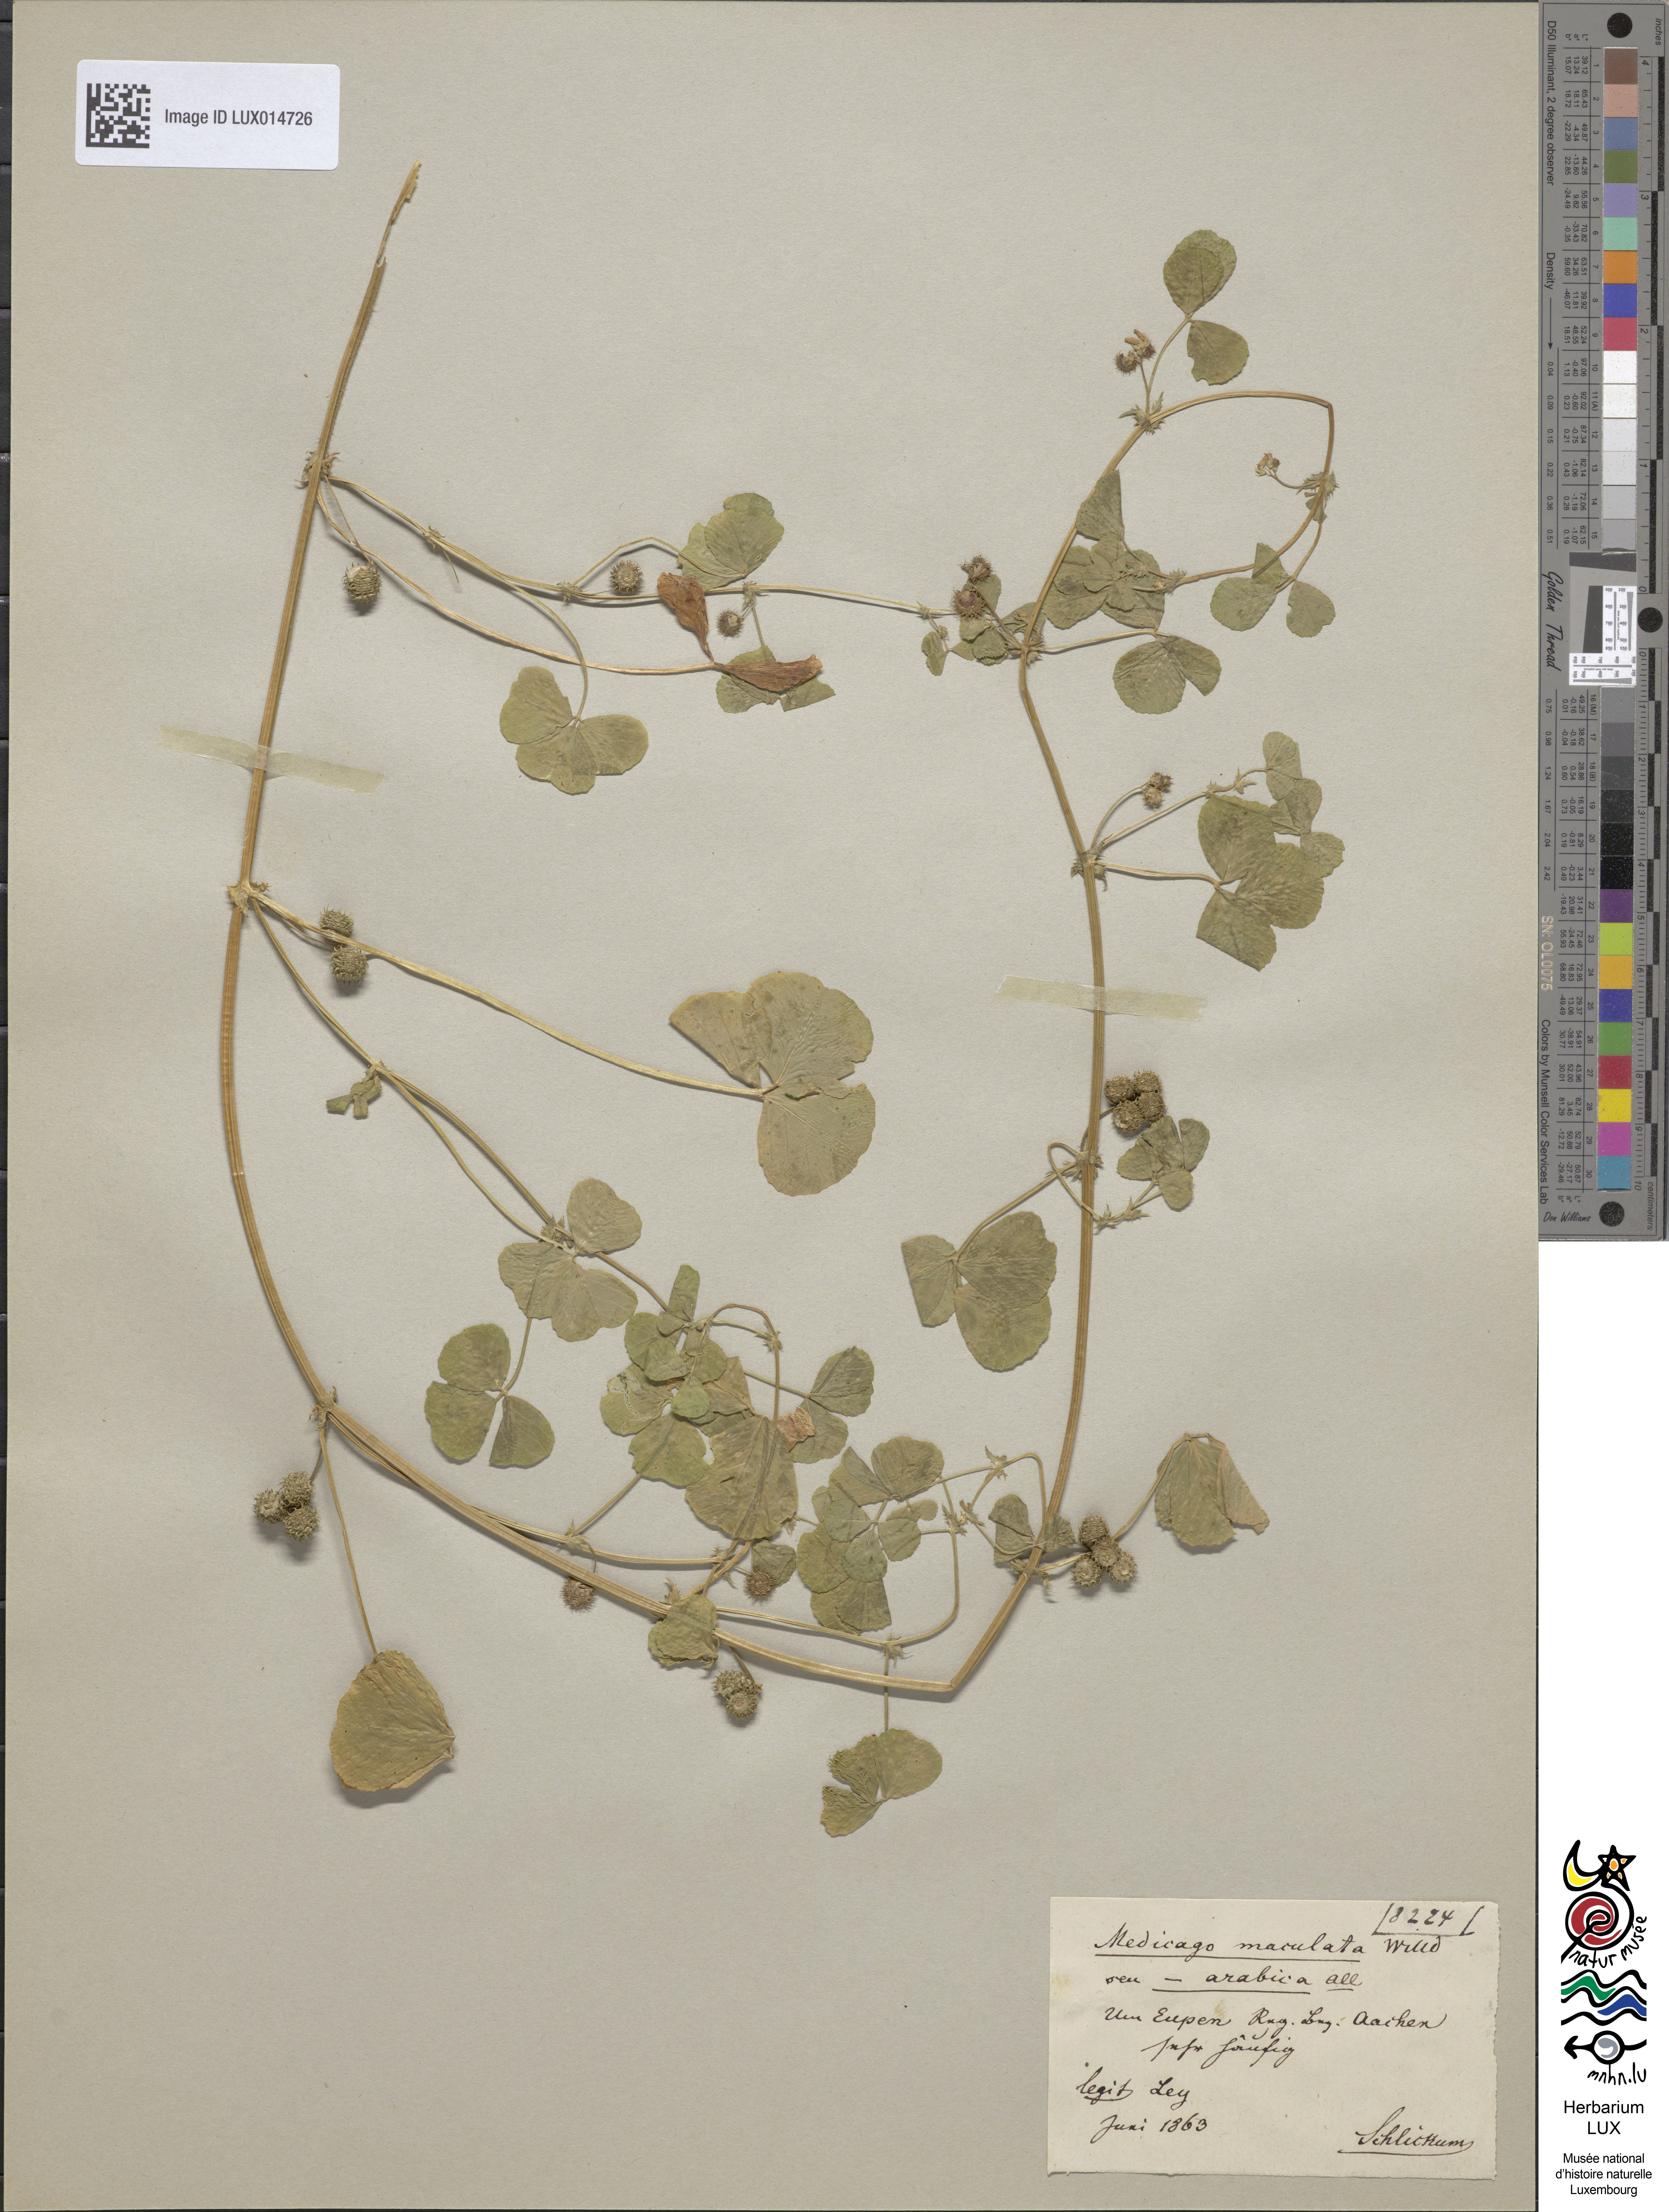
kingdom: Plantae
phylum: Tracheophyta
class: Magnoliopsida
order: Fabales
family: Fabaceae
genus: Medicago
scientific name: Medicago arabica
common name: Spotted medick
